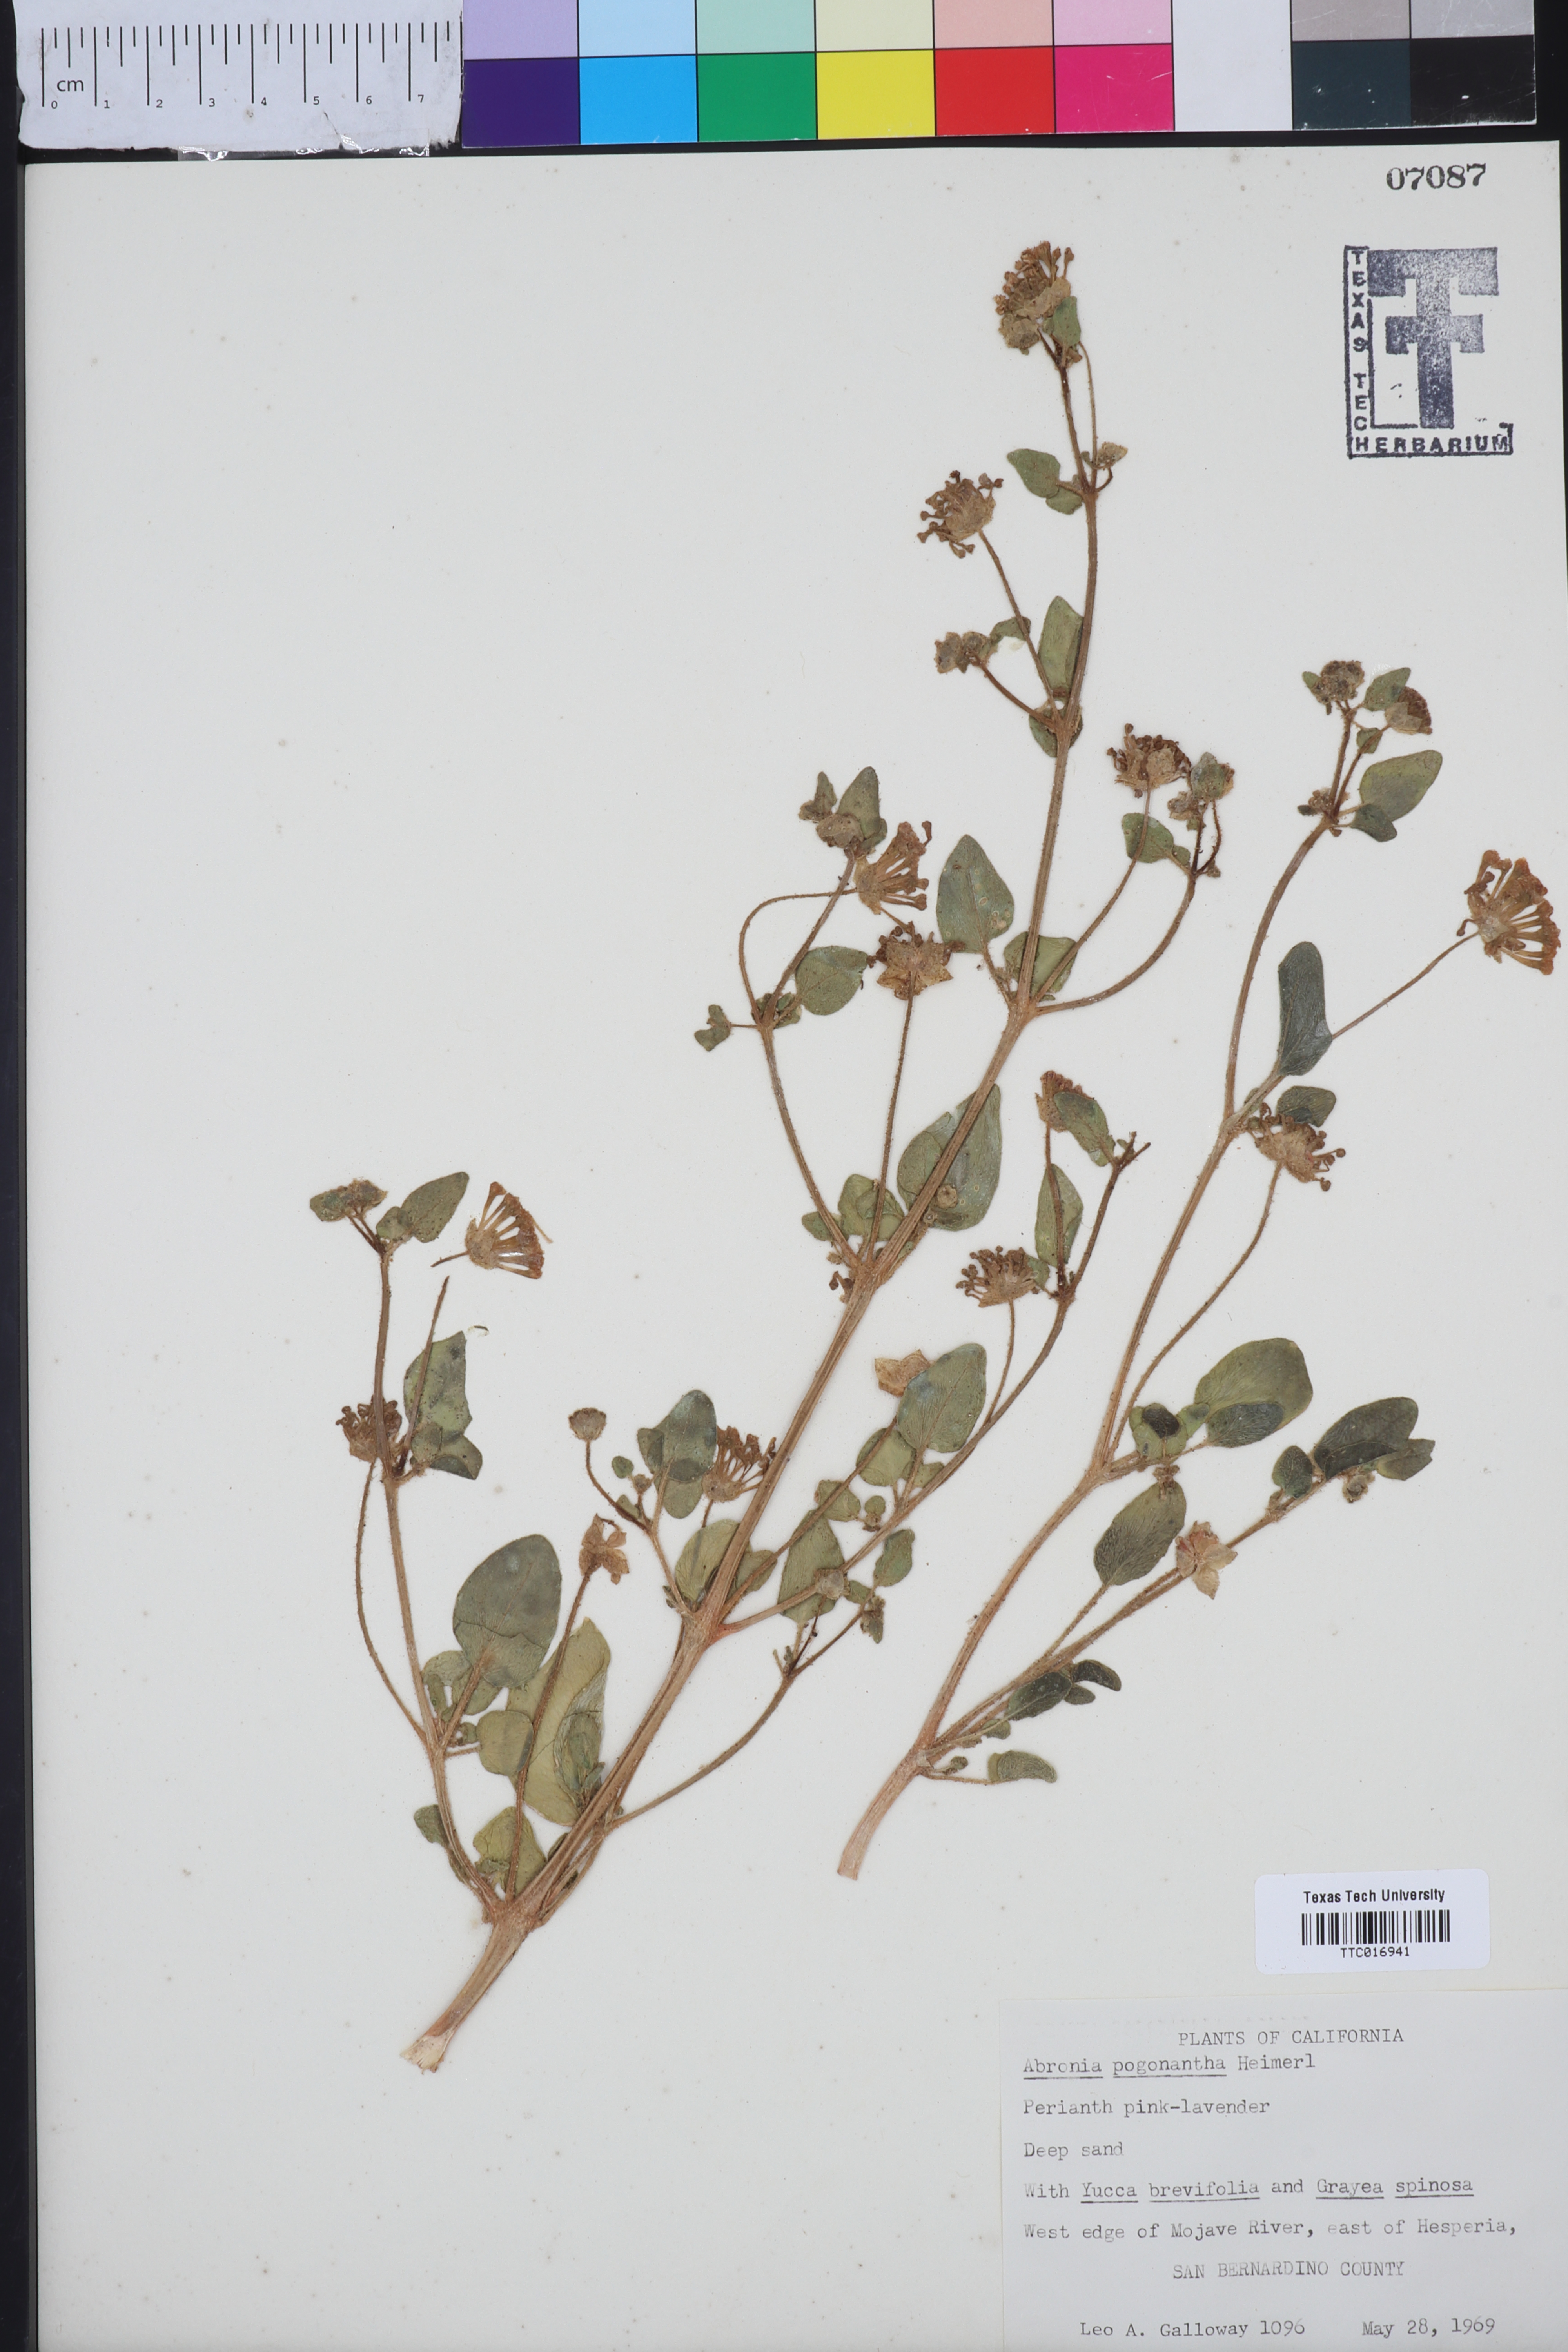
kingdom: Plantae
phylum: Tracheophyta
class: Magnoliopsida
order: Caryophyllales
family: Nyctaginaceae
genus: Abronia
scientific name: Abronia pogonantha
